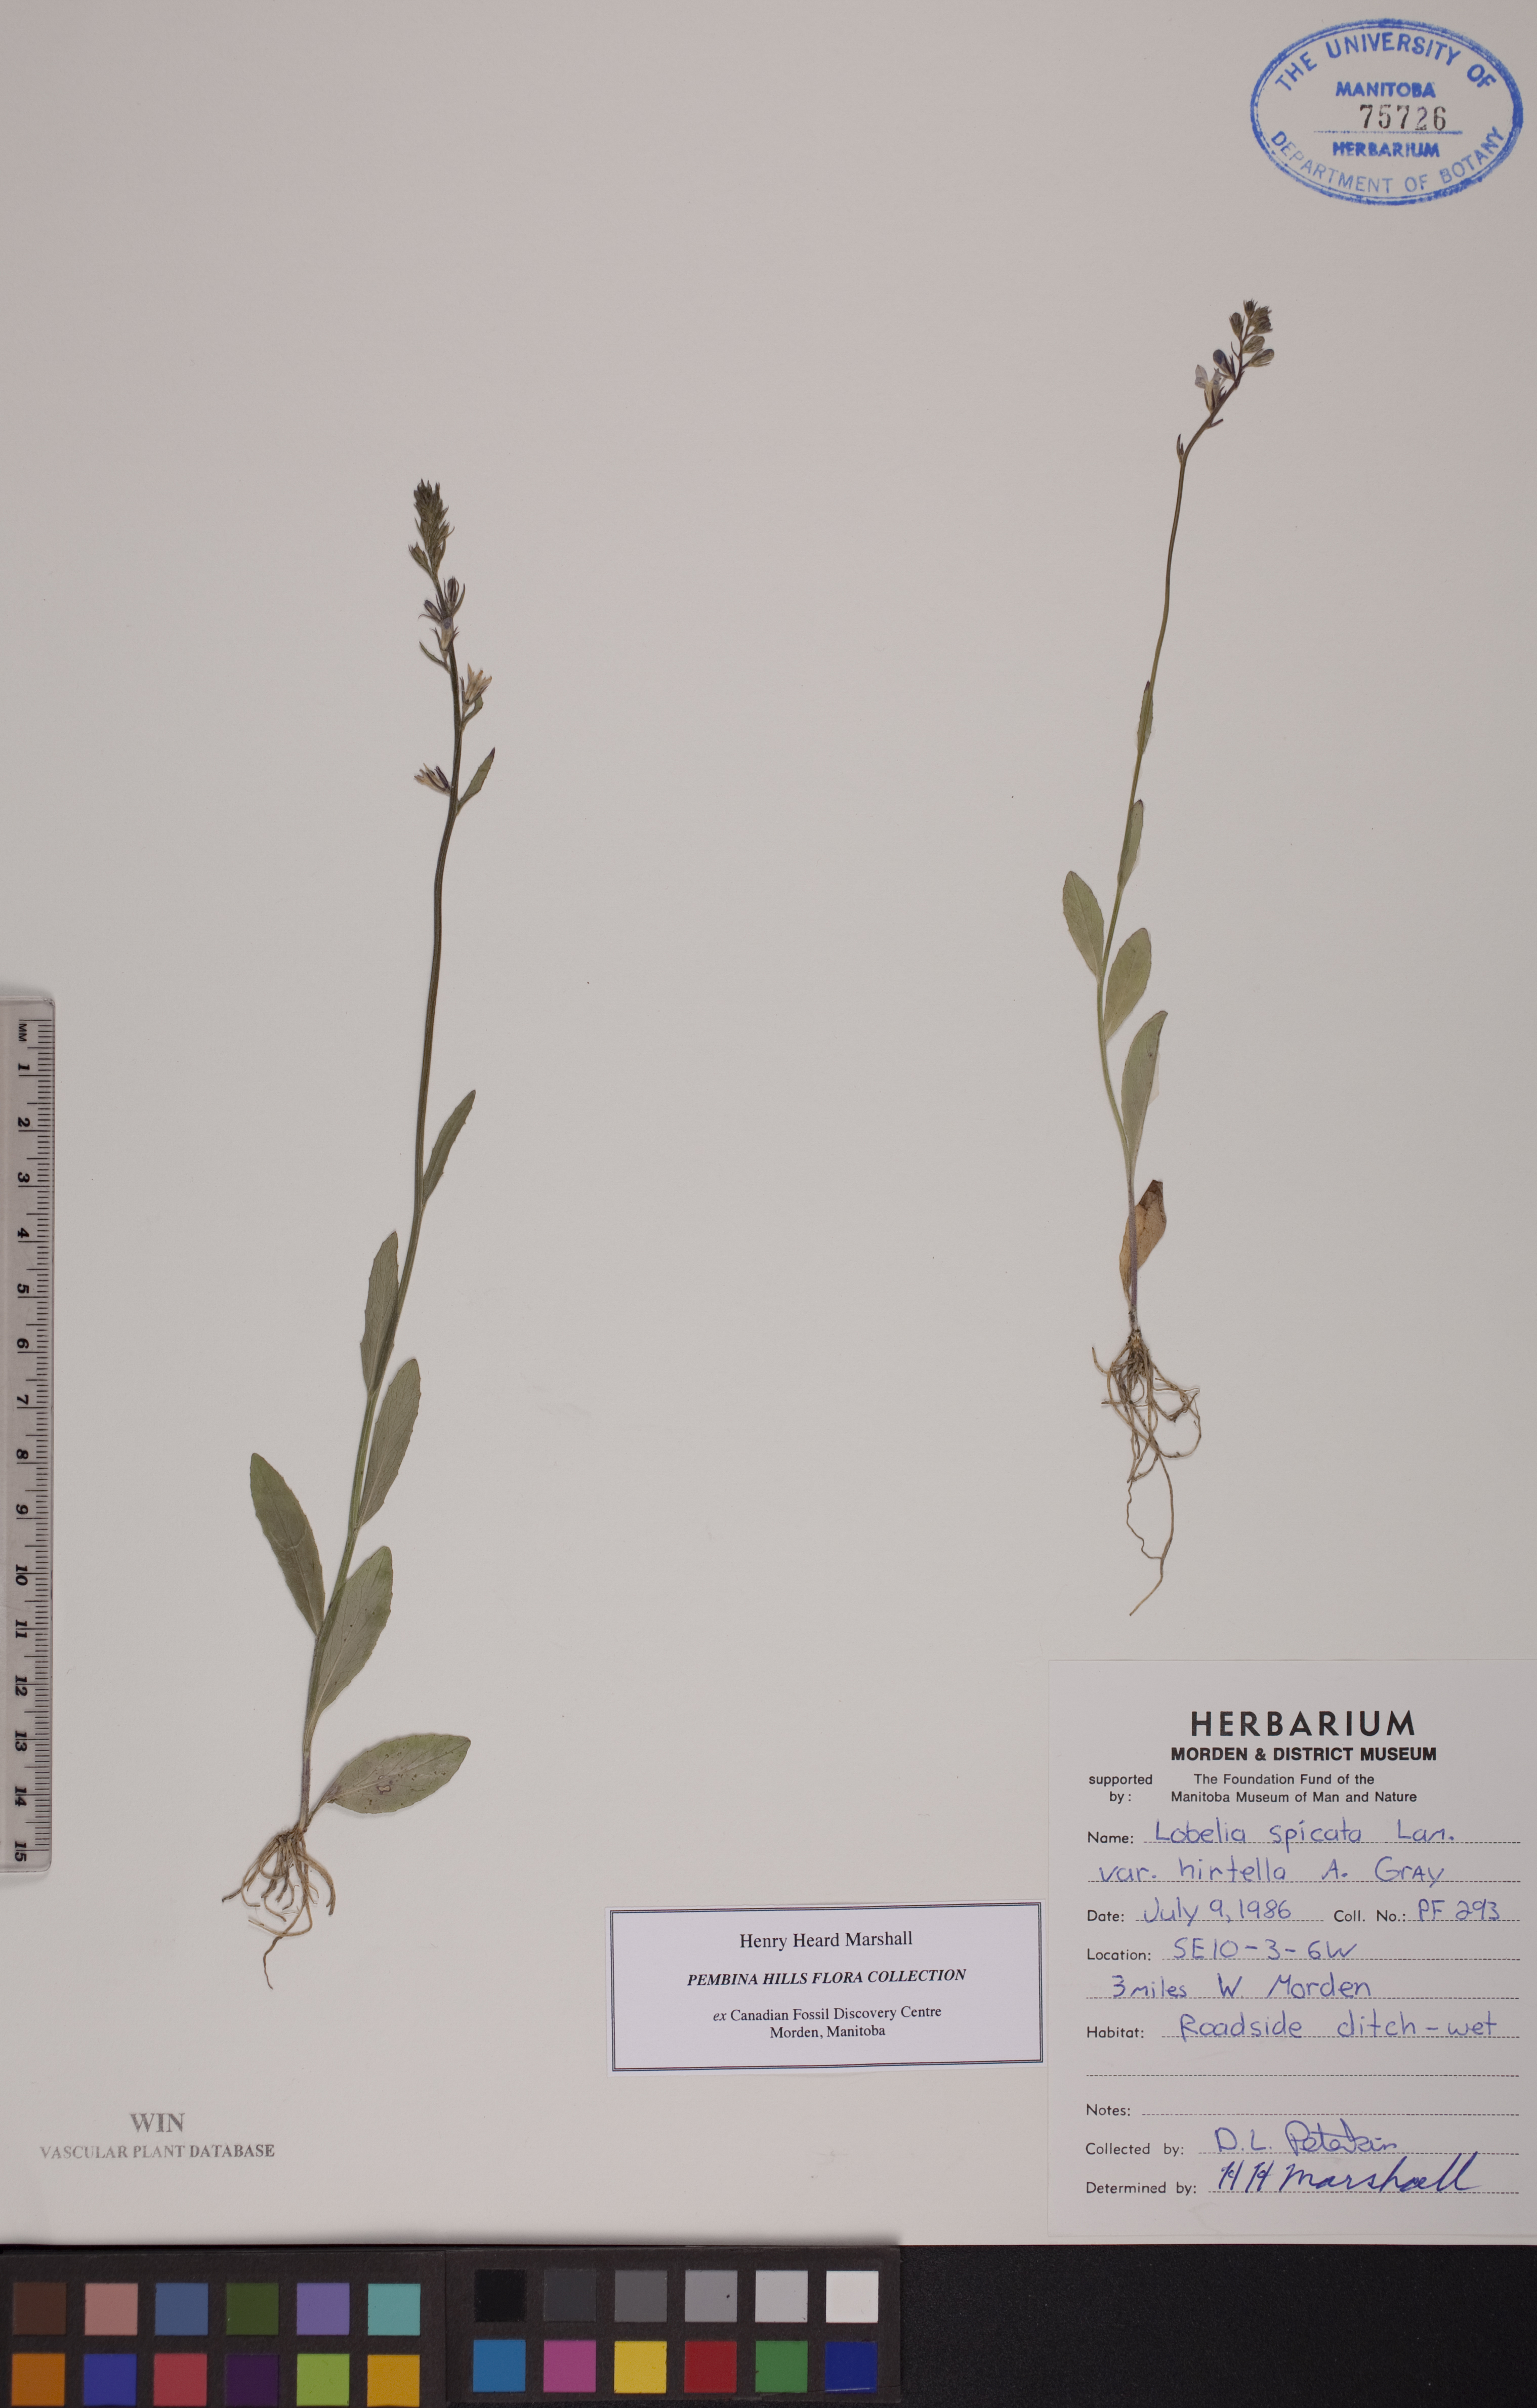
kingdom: Plantae
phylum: Tracheophyta
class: Magnoliopsida
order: Asterales
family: Campanulaceae
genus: Lobelia
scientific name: Lobelia spicata
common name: Pale-spike lobelia
